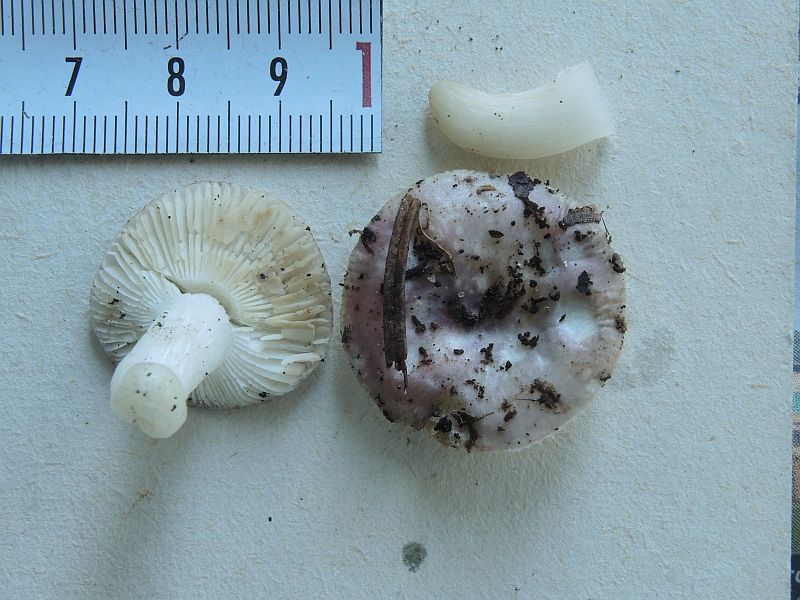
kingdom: Fungi
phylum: Basidiomycota
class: Agaricomycetes
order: Russulales
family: Russulaceae
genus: Russula
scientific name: Russula fragilis
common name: savbladet skørhat
